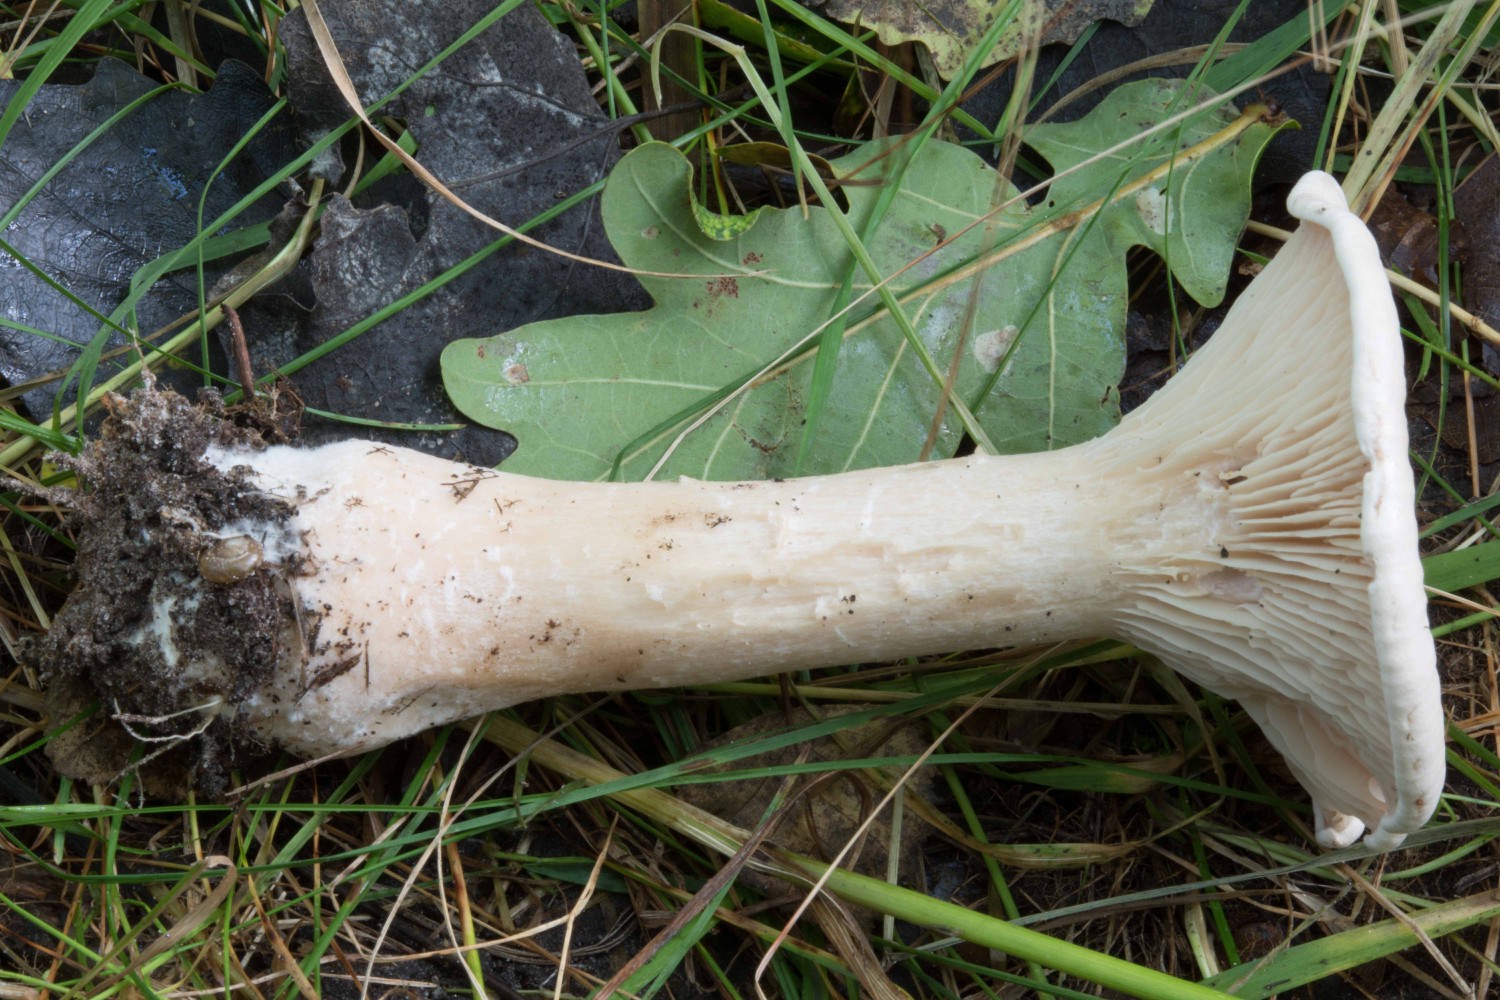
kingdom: Fungi
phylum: Basidiomycota
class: Agaricomycetes
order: Agaricales
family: Tricholomataceae
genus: Infundibulicybe
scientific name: Infundibulicybe geotropa
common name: stor tragthat
